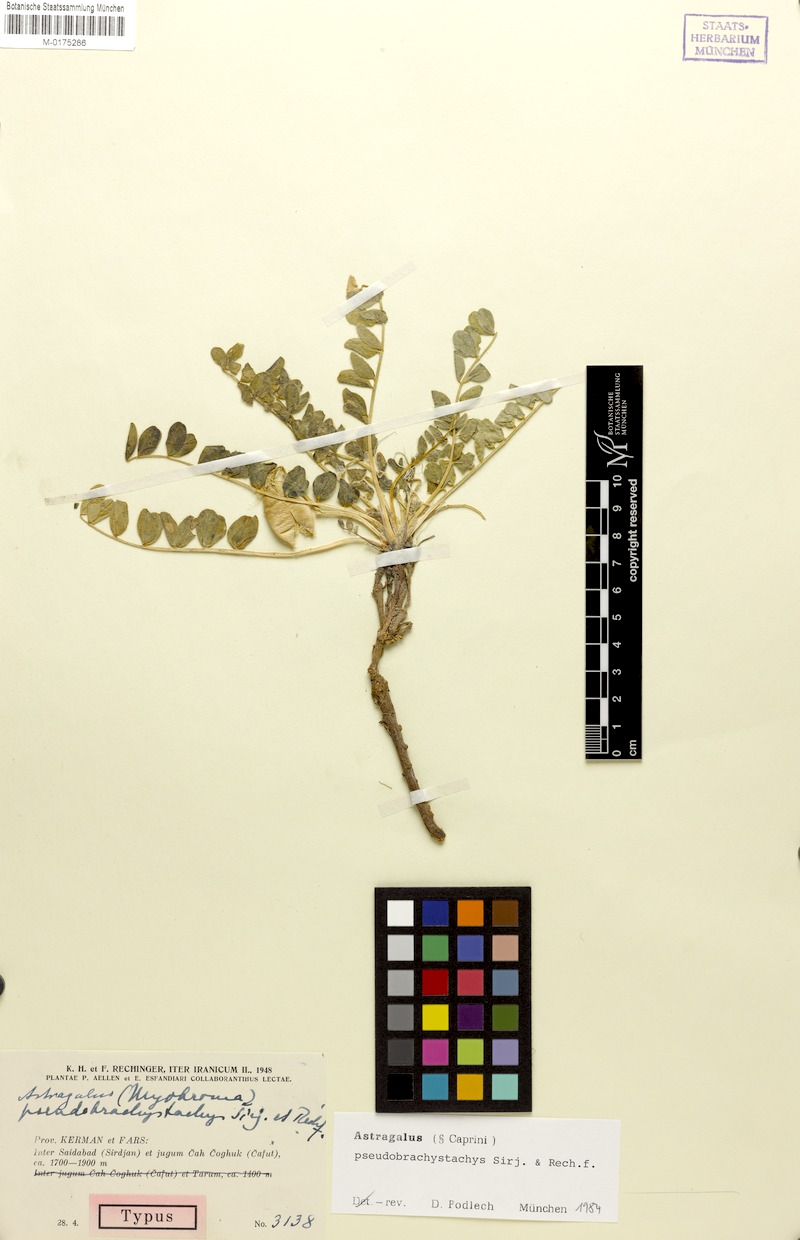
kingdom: Plantae
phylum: Tracheophyta
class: Magnoliopsida
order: Fabales
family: Fabaceae
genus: Astragalus
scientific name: Astragalus pseudobrachystachys
